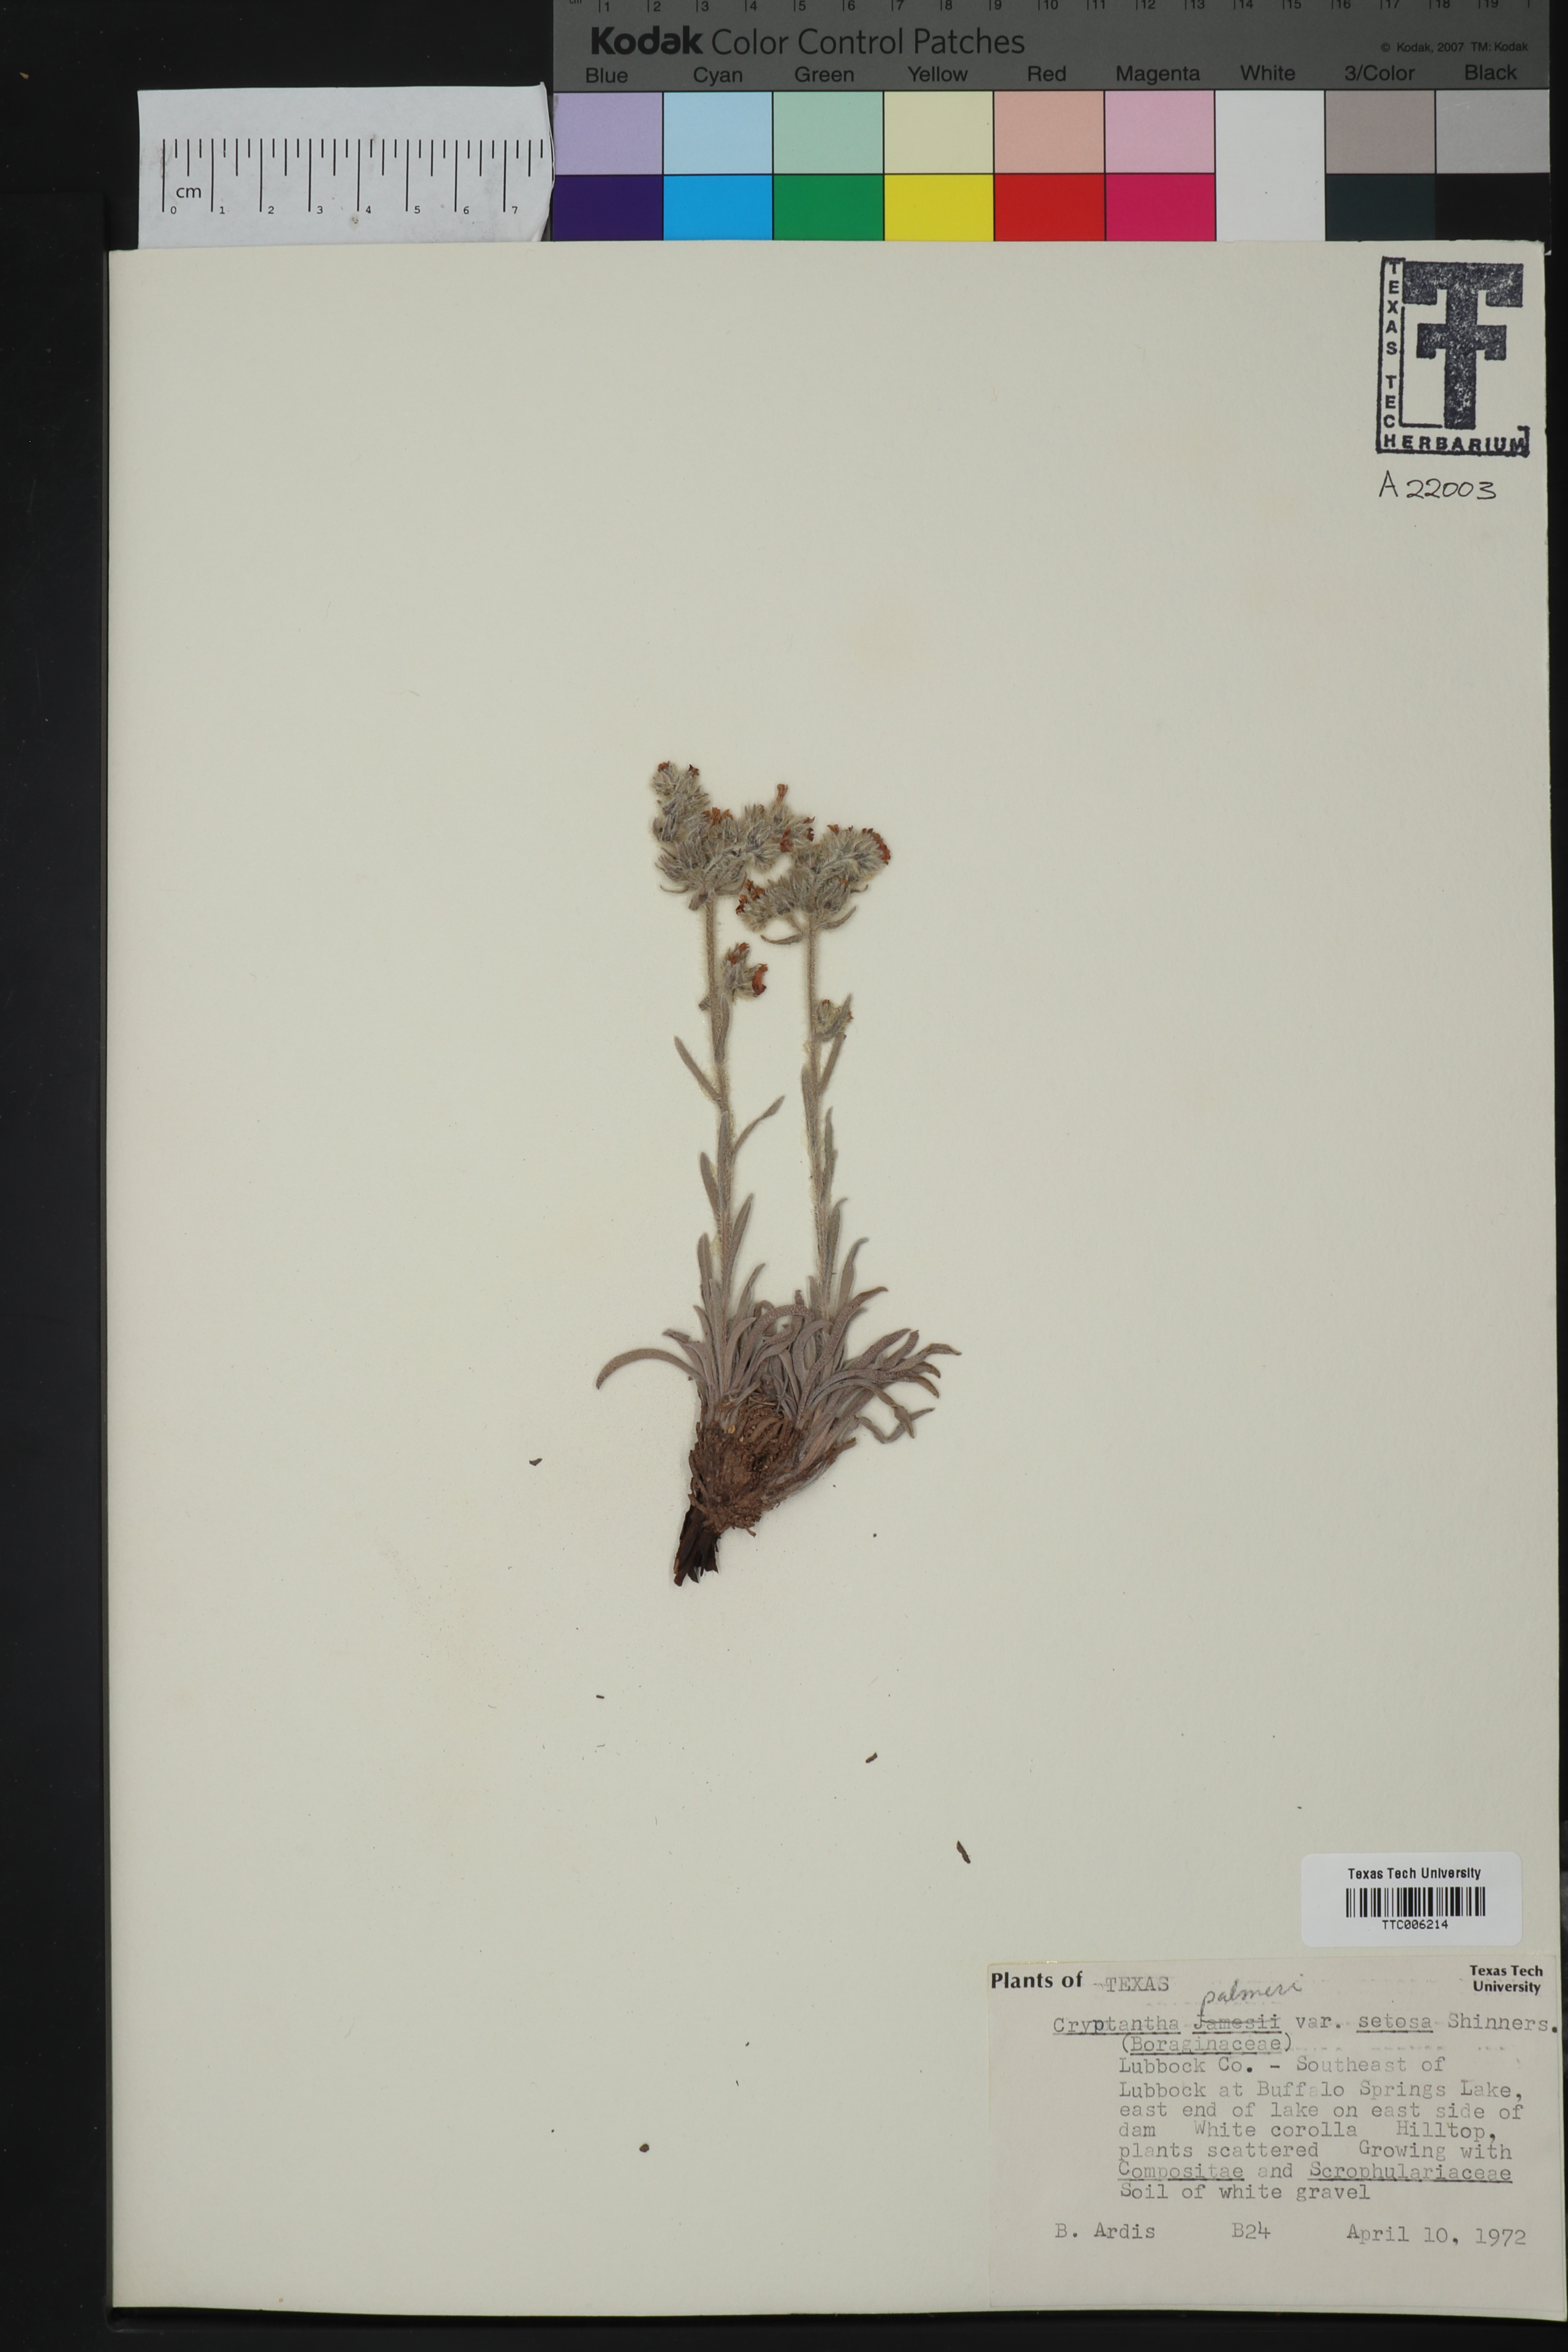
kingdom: Plantae
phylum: Tracheophyta
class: Magnoliopsida
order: Boraginales
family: Boraginaceae
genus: Oreocarya
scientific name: Oreocarya palmeri
